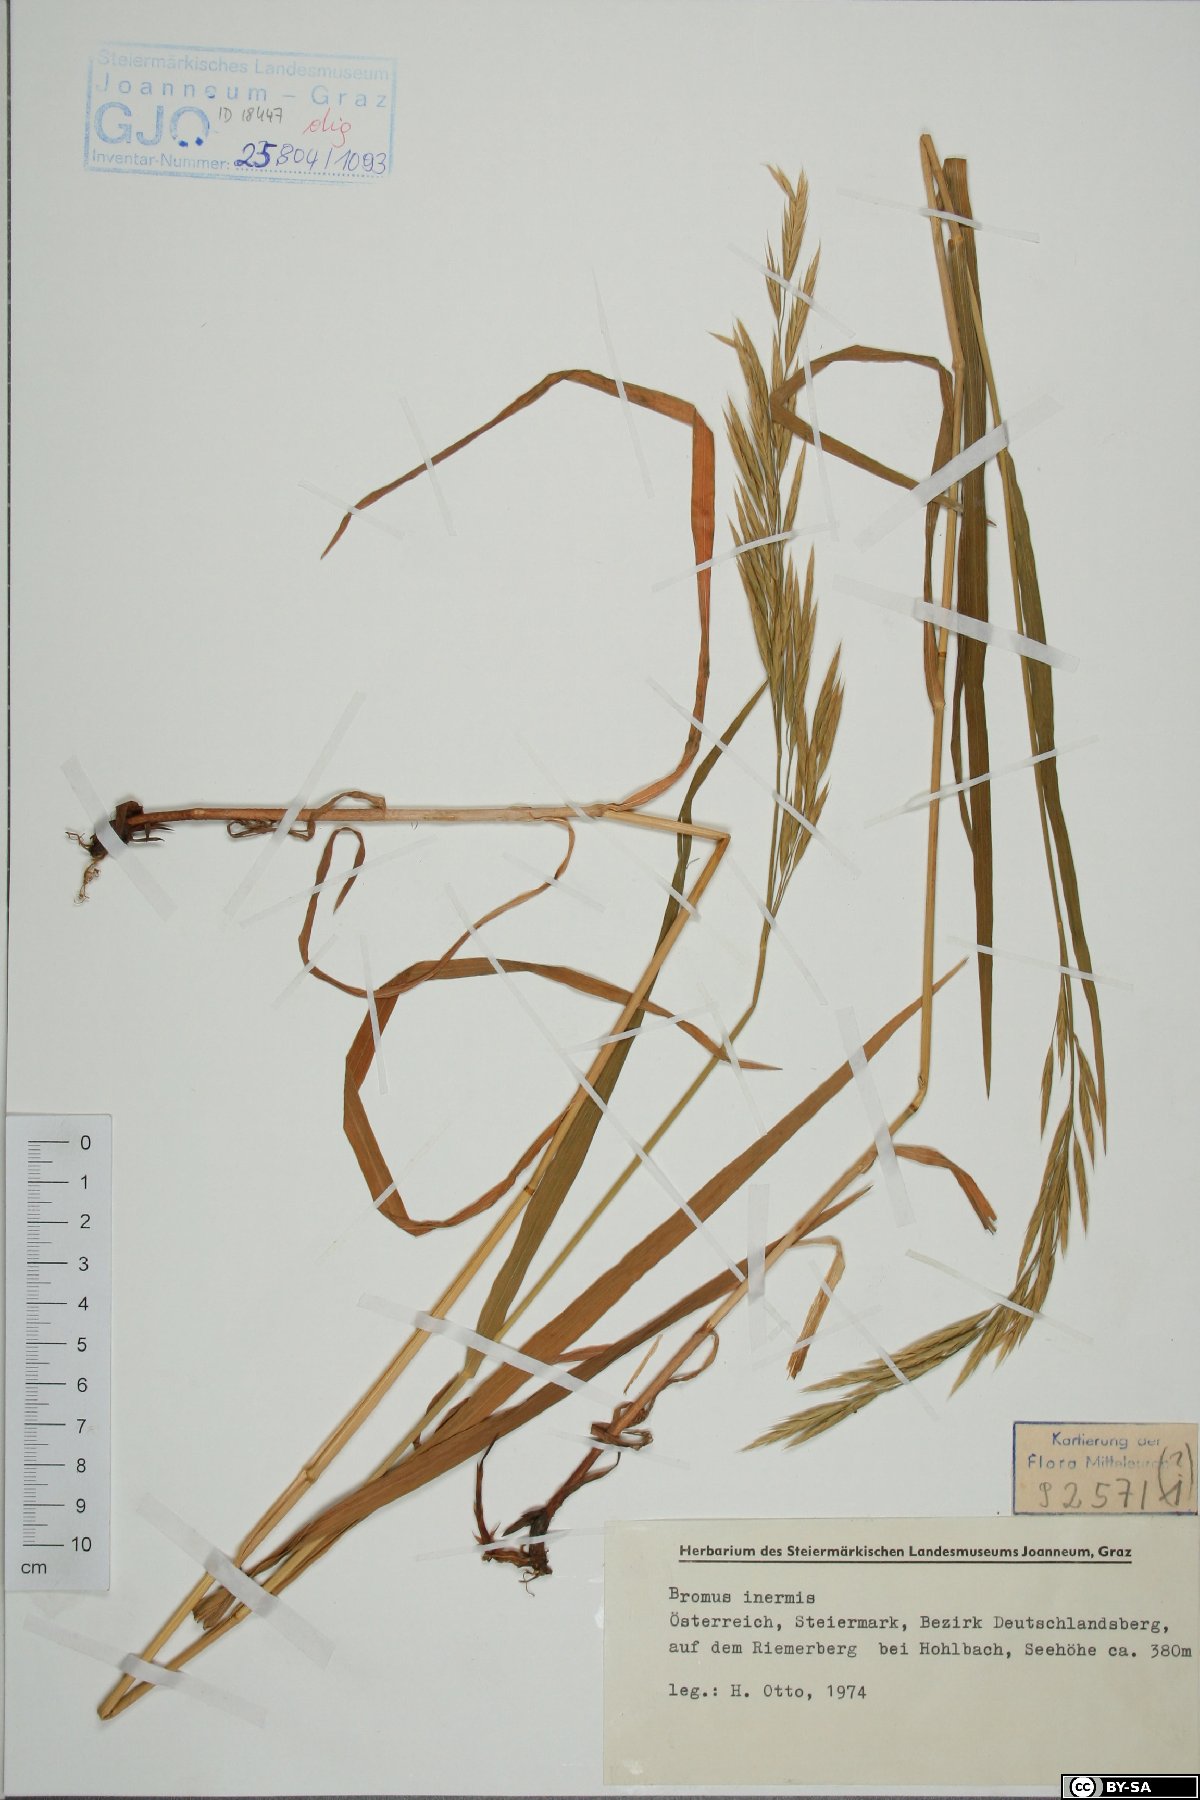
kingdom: Plantae
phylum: Tracheophyta
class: Liliopsida
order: Poales
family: Poaceae
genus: Bromus
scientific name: Bromus inermis
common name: Smooth brome
